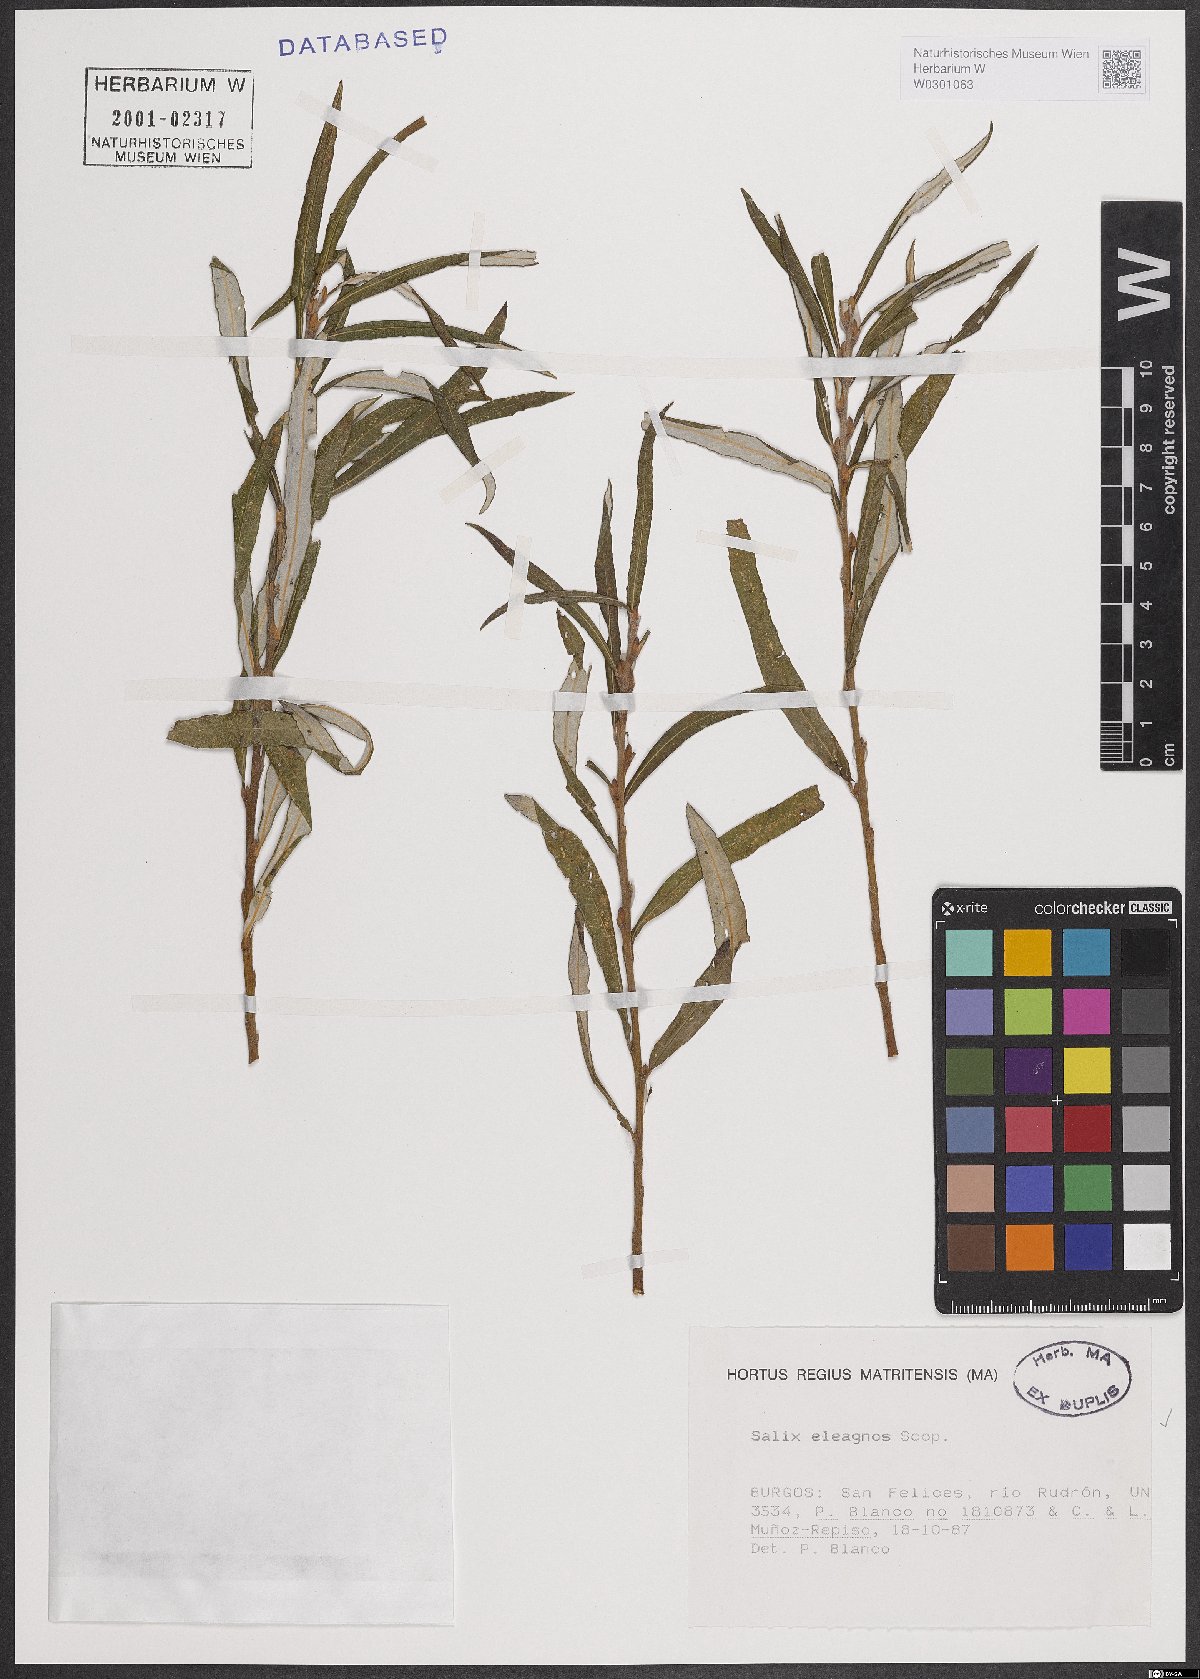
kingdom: Plantae
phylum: Tracheophyta
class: Magnoliopsida
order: Malpighiales
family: Salicaceae
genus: Salix
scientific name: Salix eleagnos
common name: Elaeagnus willow
